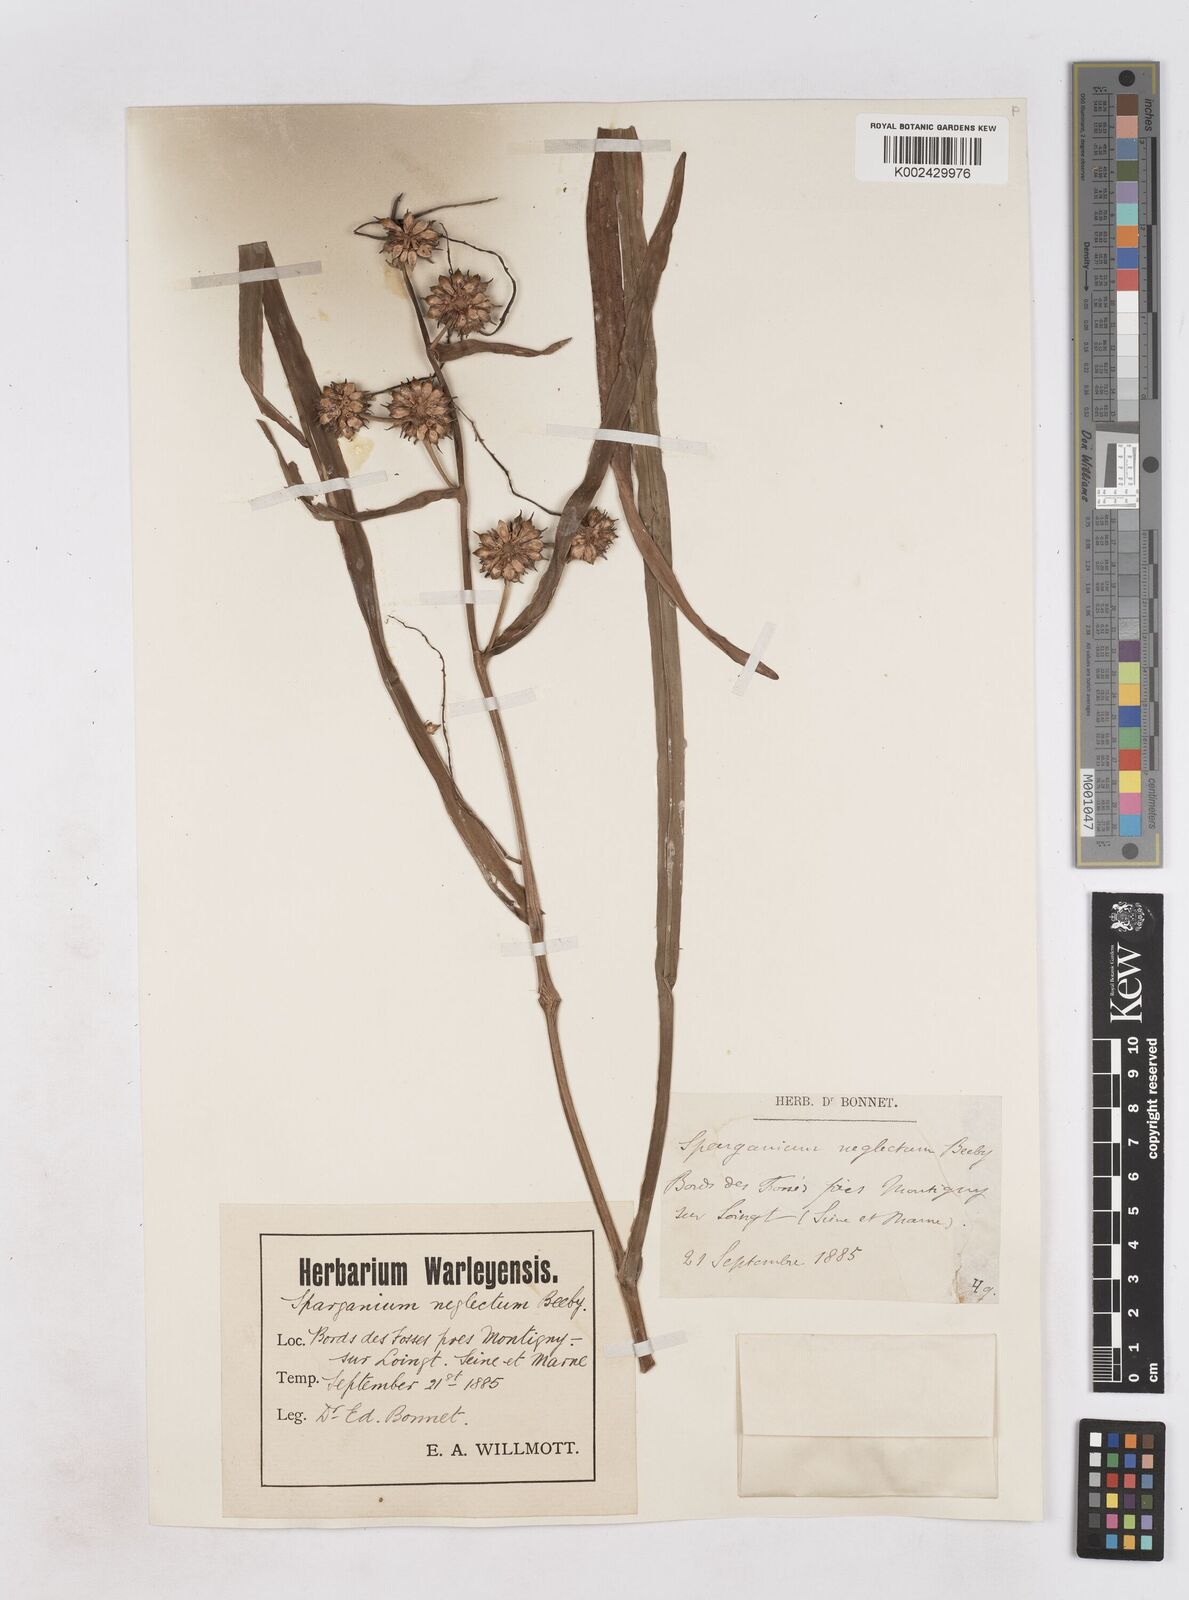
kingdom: Plantae
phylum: Tracheophyta
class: Liliopsida
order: Poales
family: Typhaceae
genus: Sparganium
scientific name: Sparganium erectum
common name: Branched bur-reed
